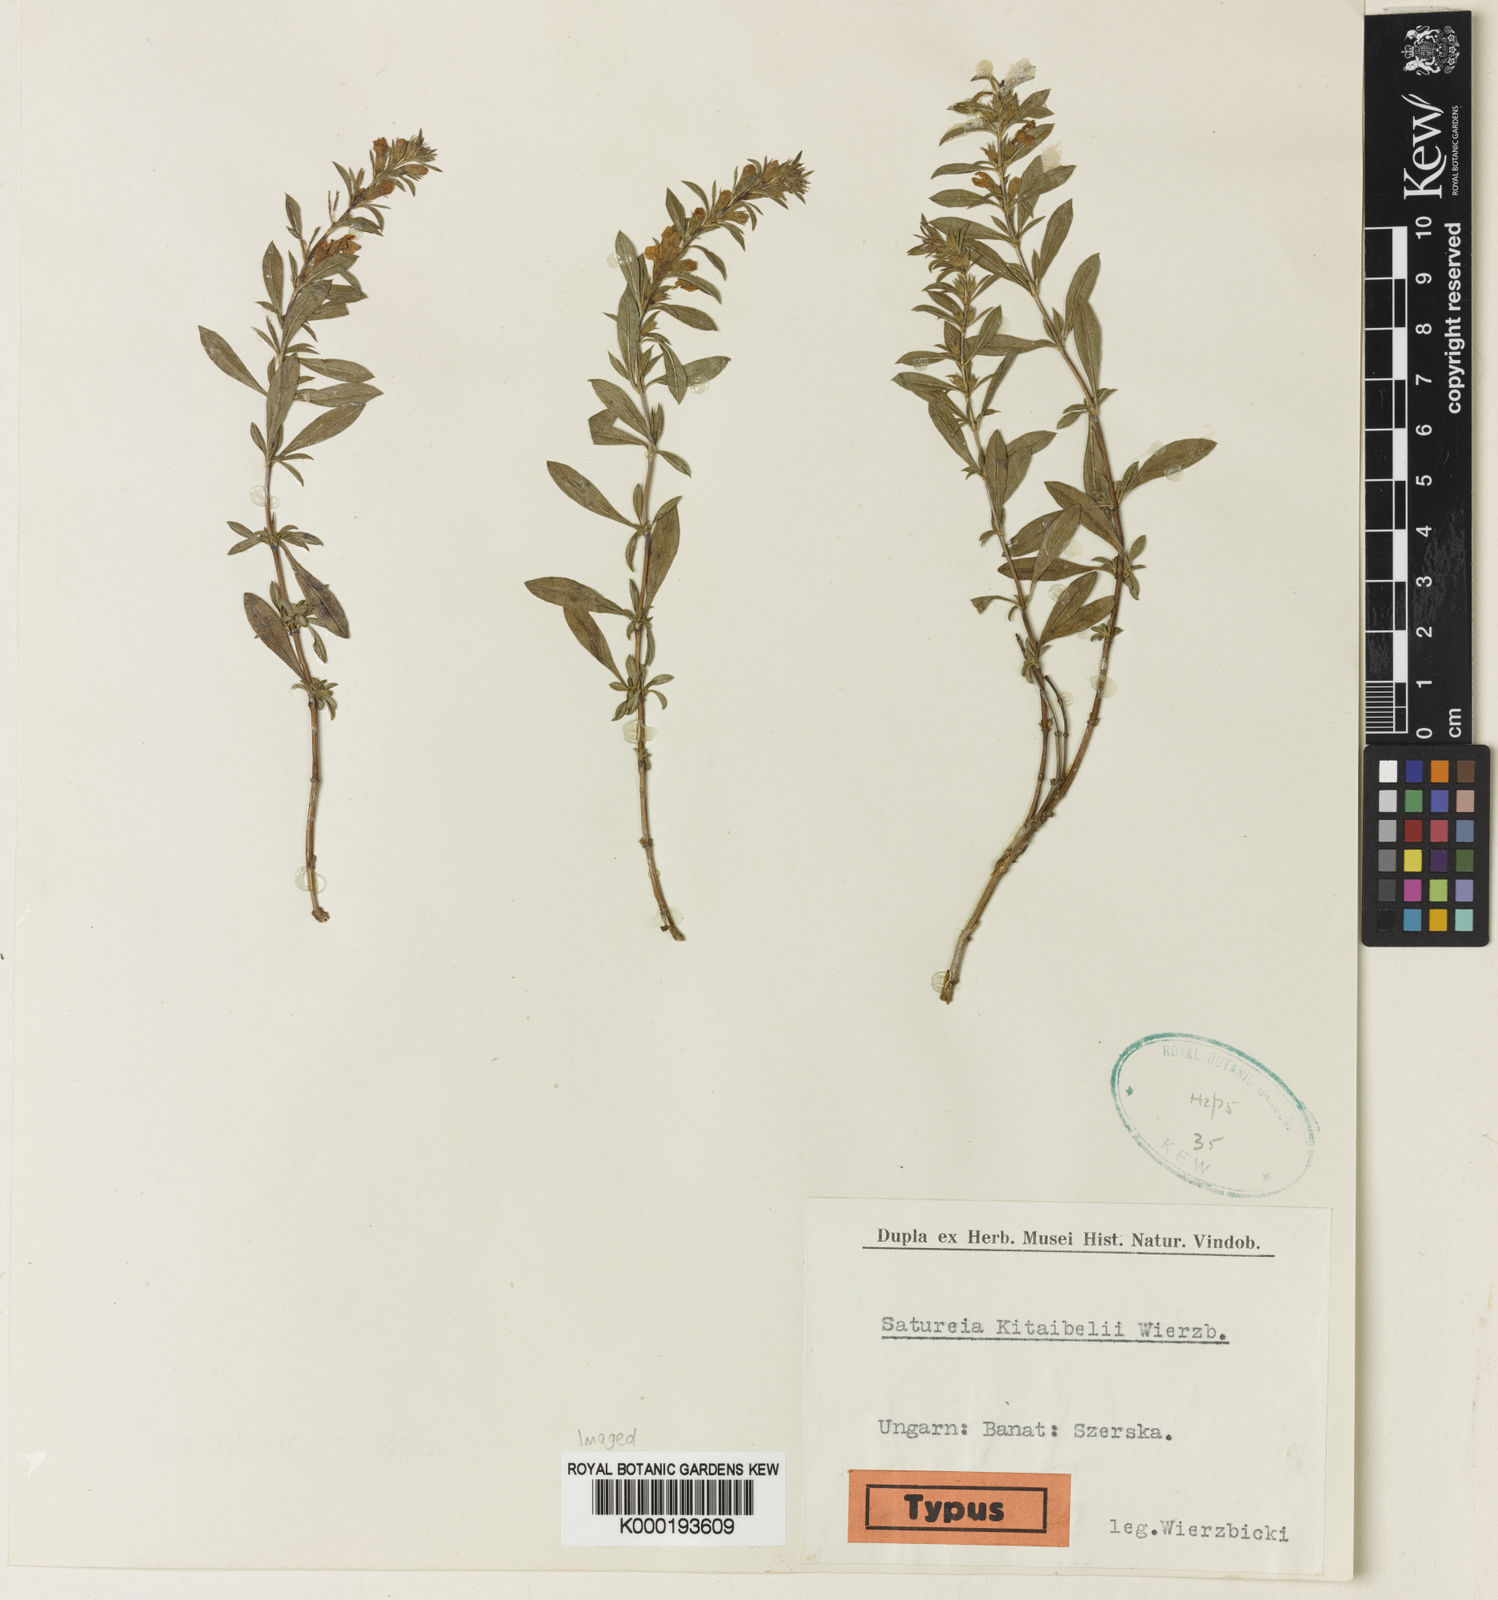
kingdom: Plantae
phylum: Tracheophyta
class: Magnoliopsida
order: Lamiales
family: Lamiaceae
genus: Satureja
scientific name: Satureja montana
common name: Winter savory
